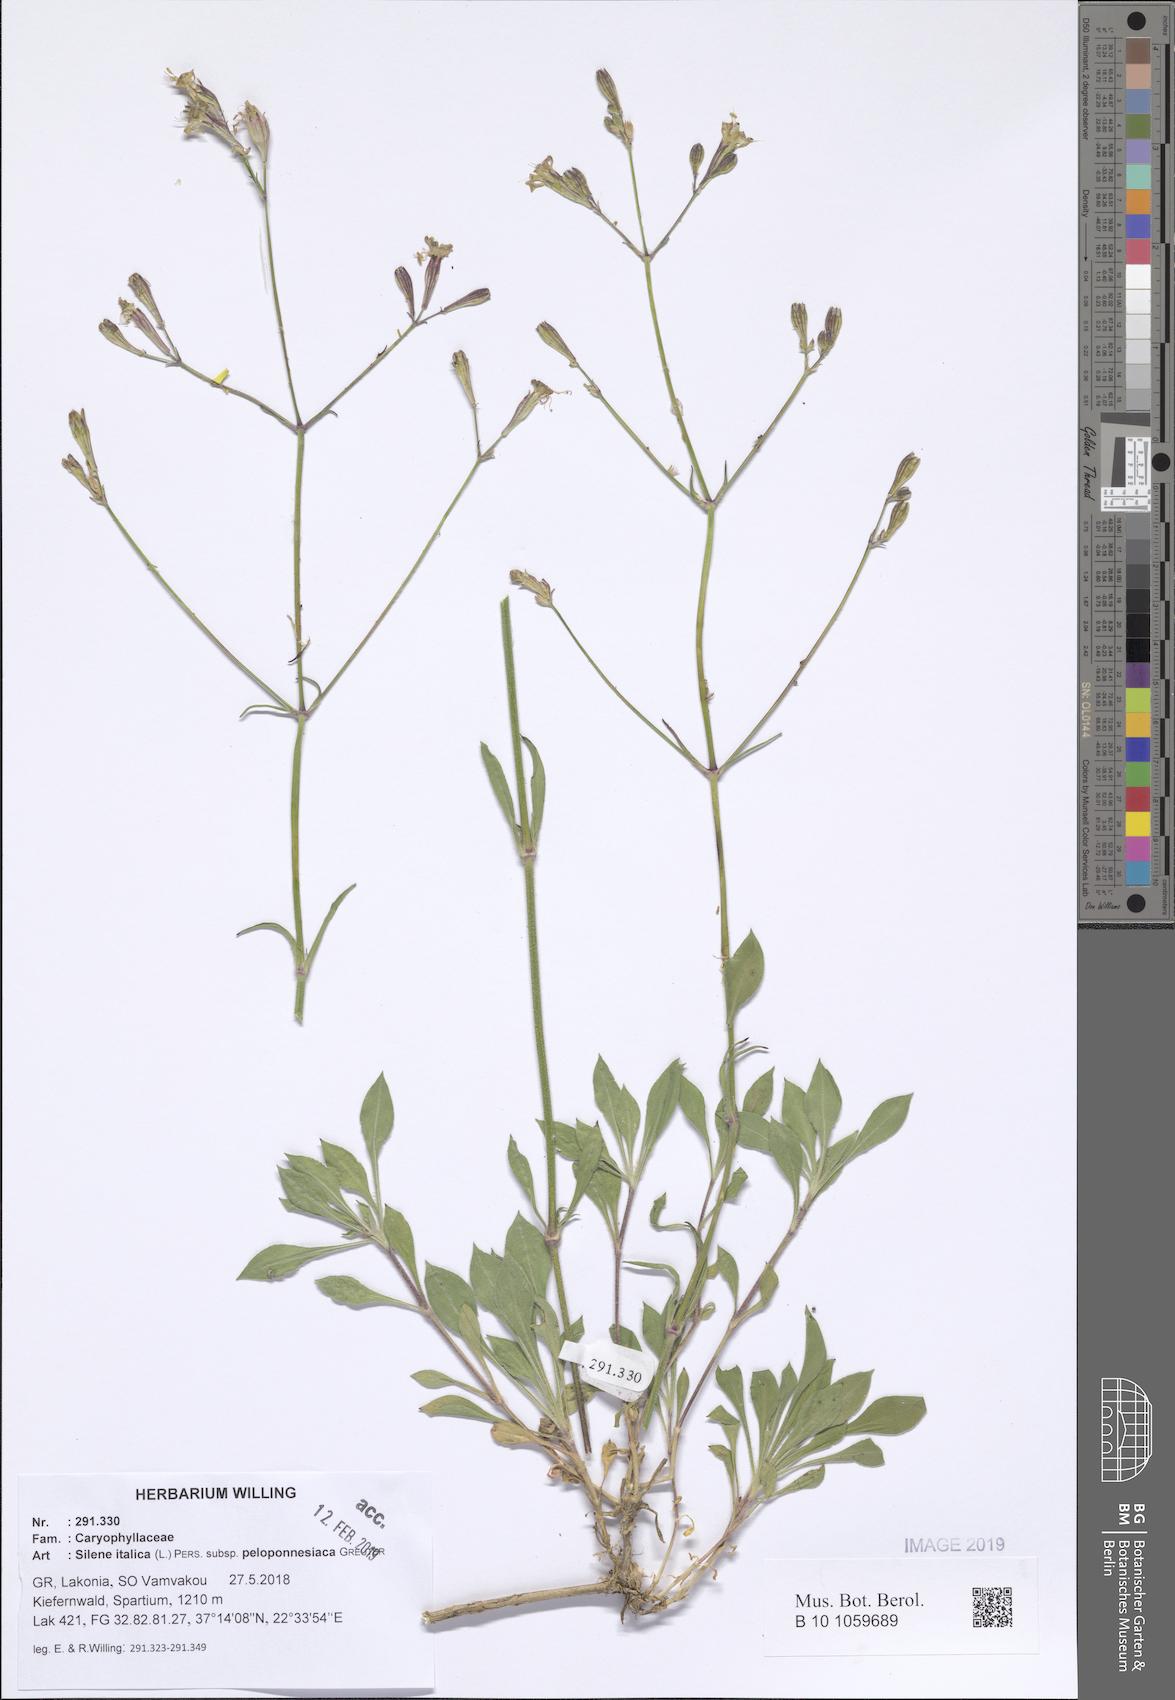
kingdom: Plantae
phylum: Tracheophyta
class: Magnoliopsida
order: Caryophyllales
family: Caryophyllaceae
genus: Silene
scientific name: Silene italica
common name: Italian catchfly
